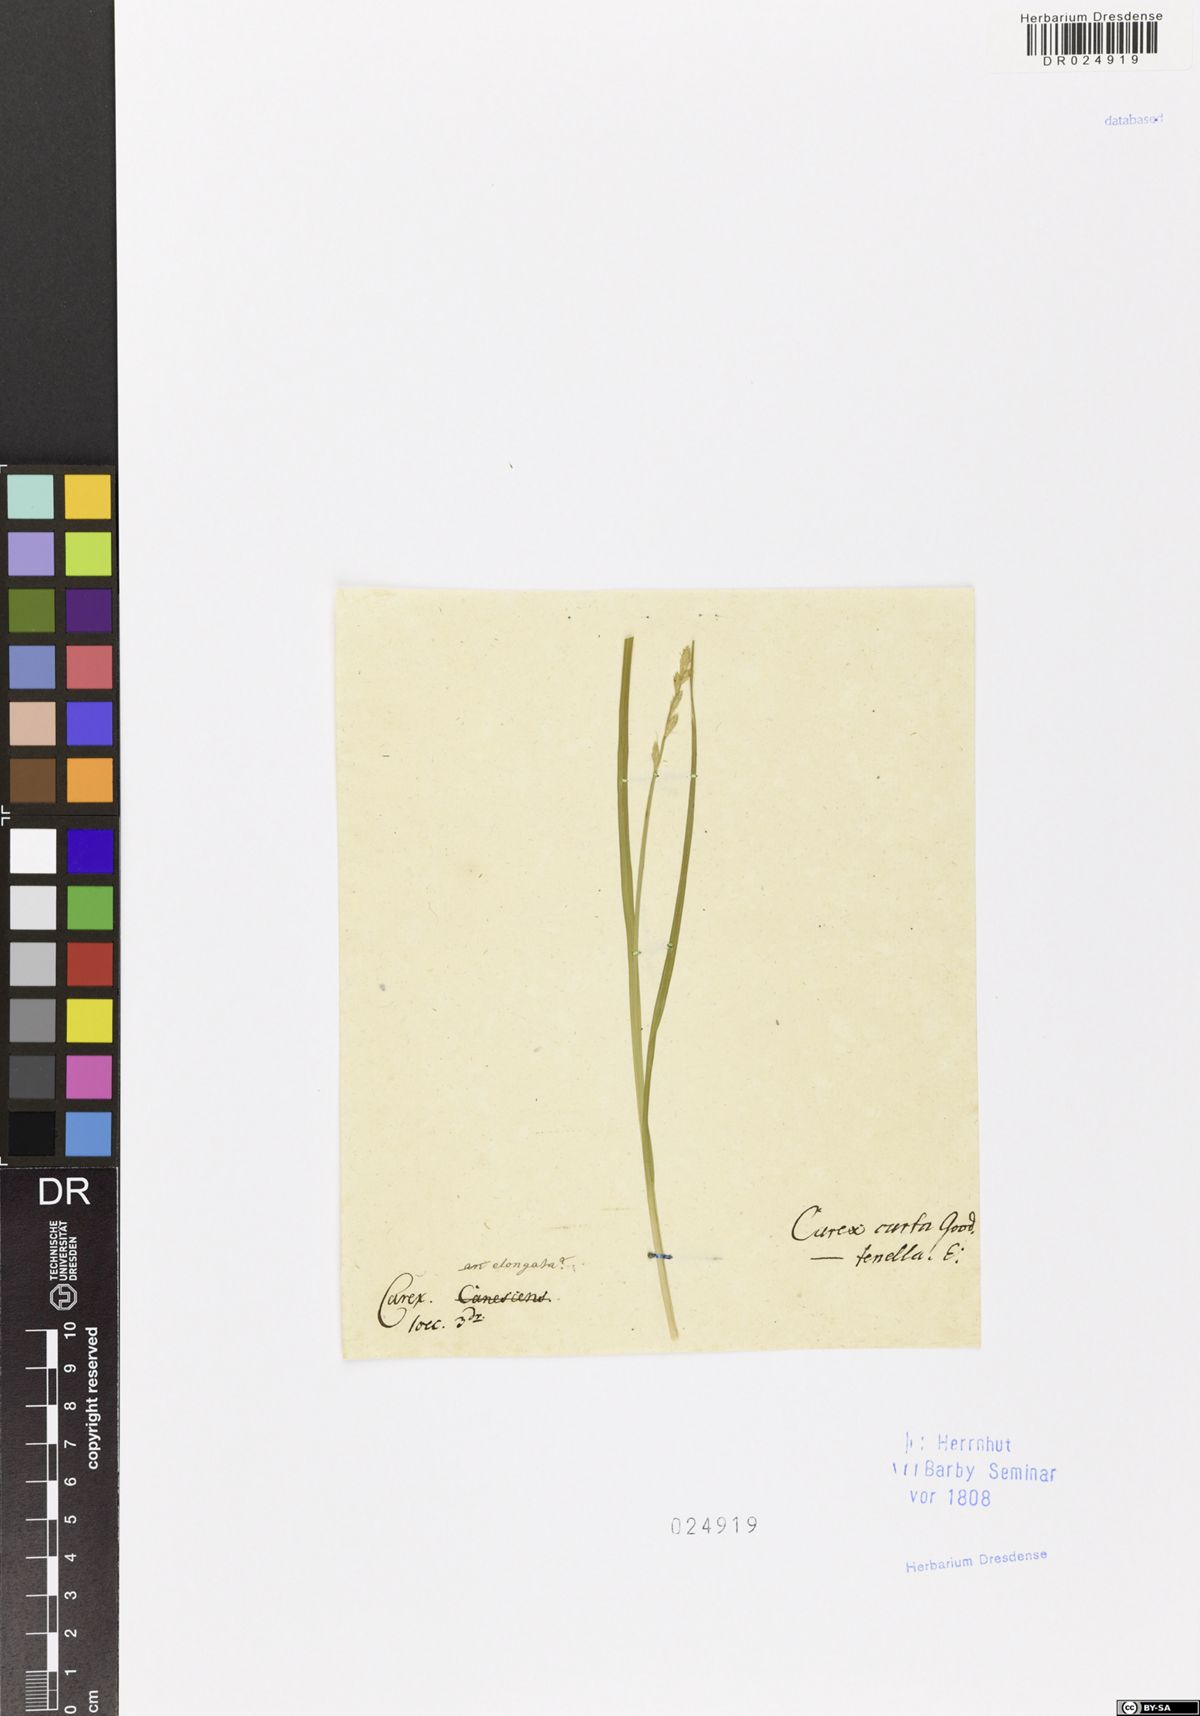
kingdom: Plantae
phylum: Tracheophyta
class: Liliopsida
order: Poales
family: Cyperaceae
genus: Carex
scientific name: Carex canescens
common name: White sedge
